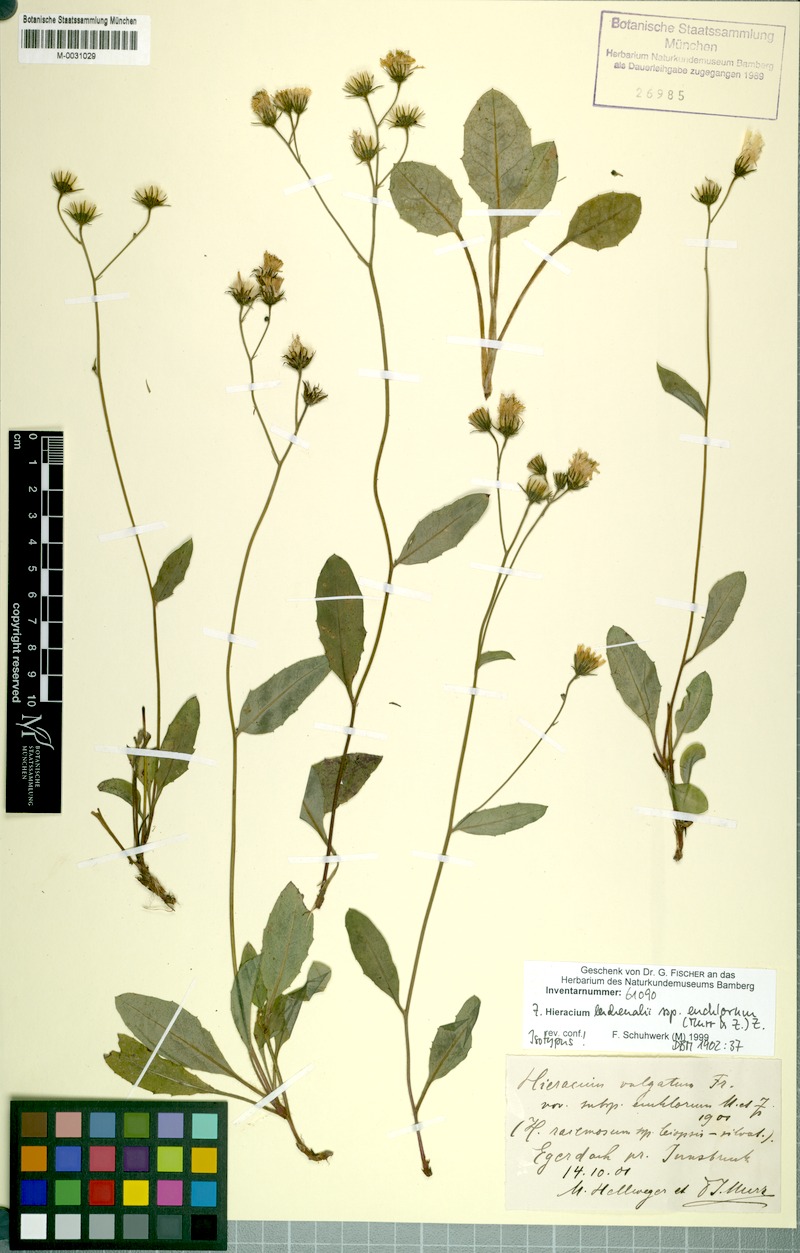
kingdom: Plantae
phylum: Tracheophyta
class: Magnoliopsida
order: Asterales
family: Asteraceae
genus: Hieracium
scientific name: Hieracium lachenalii
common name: Common hawkweed
